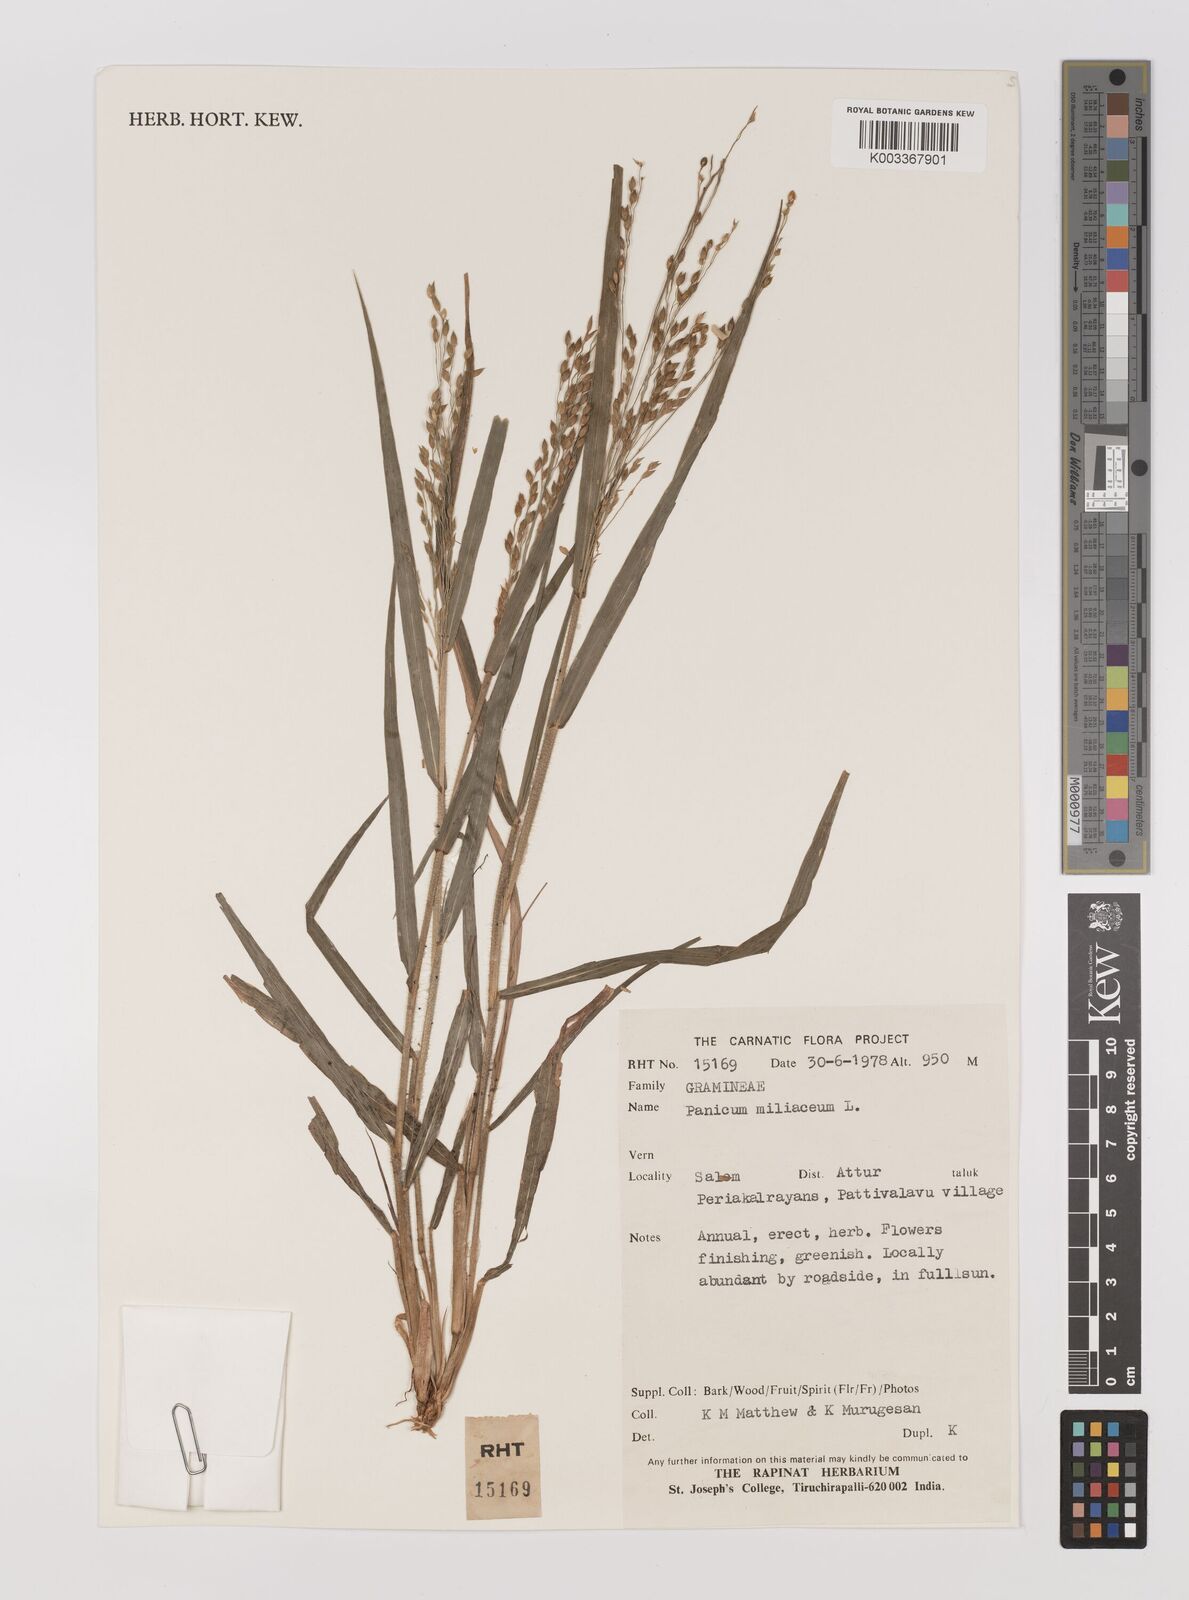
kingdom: Plantae
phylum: Tracheophyta
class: Liliopsida
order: Poales
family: Poaceae
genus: Panicum
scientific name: Panicum miliaceum
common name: Common millet
